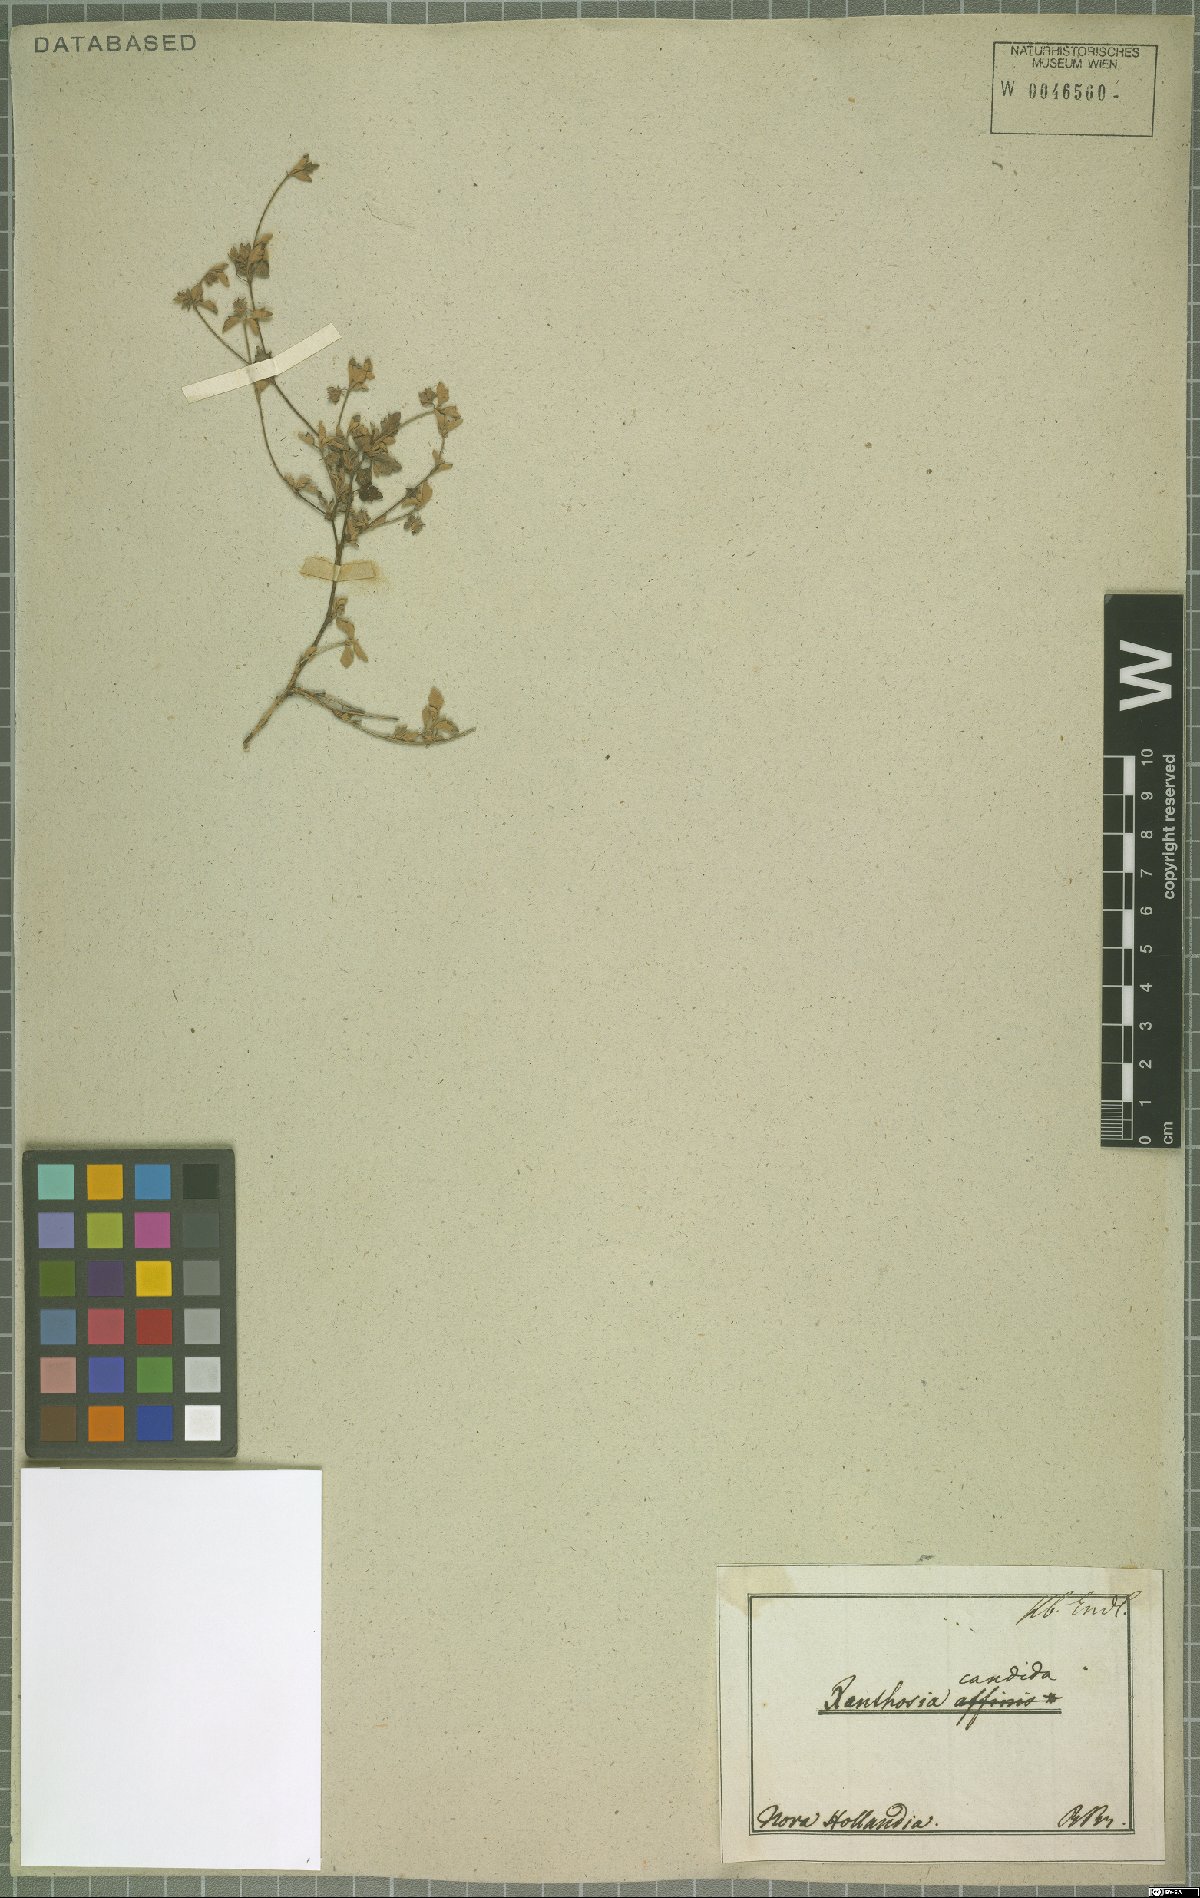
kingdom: Plantae
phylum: Tracheophyta
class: Magnoliopsida
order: Apiales
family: Apiaceae
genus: Xanthosia
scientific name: Xanthosia candida
